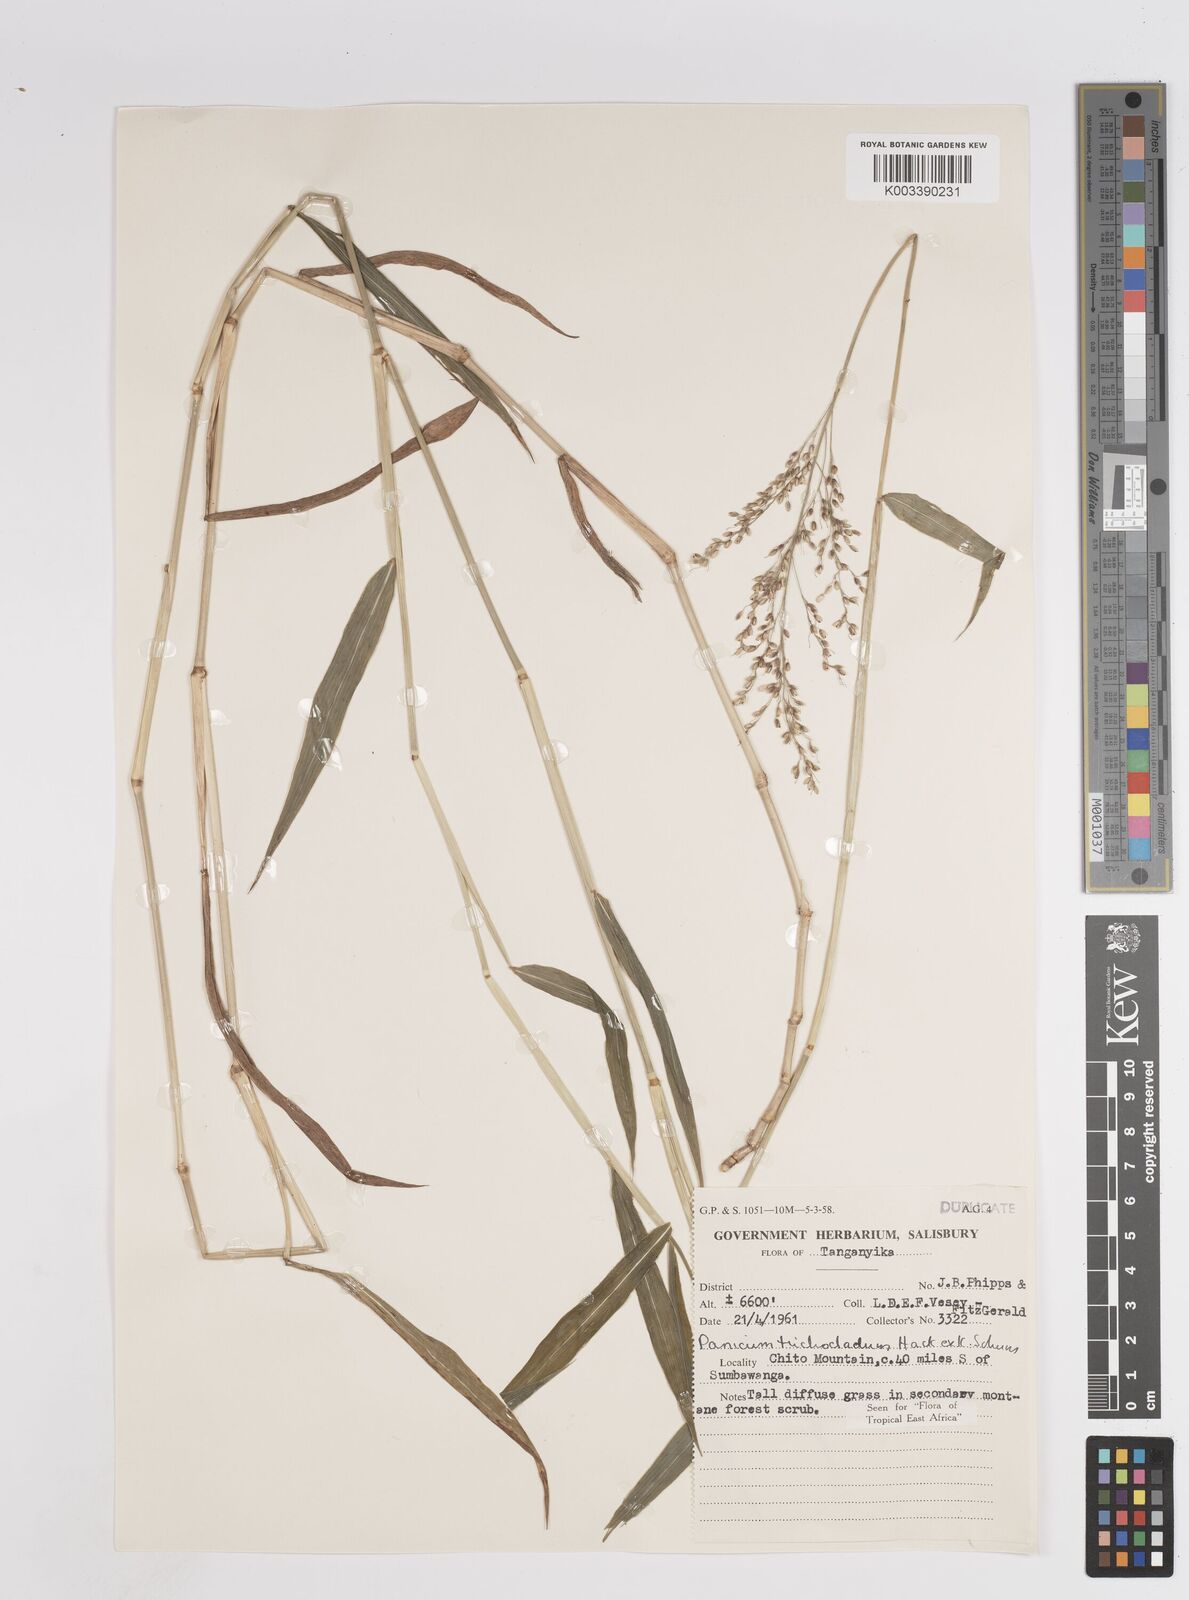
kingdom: Plantae
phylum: Tracheophyta
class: Liliopsida
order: Poales
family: Poaceae
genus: Panicum
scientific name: Panicum trichocladum
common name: Donkey grass
